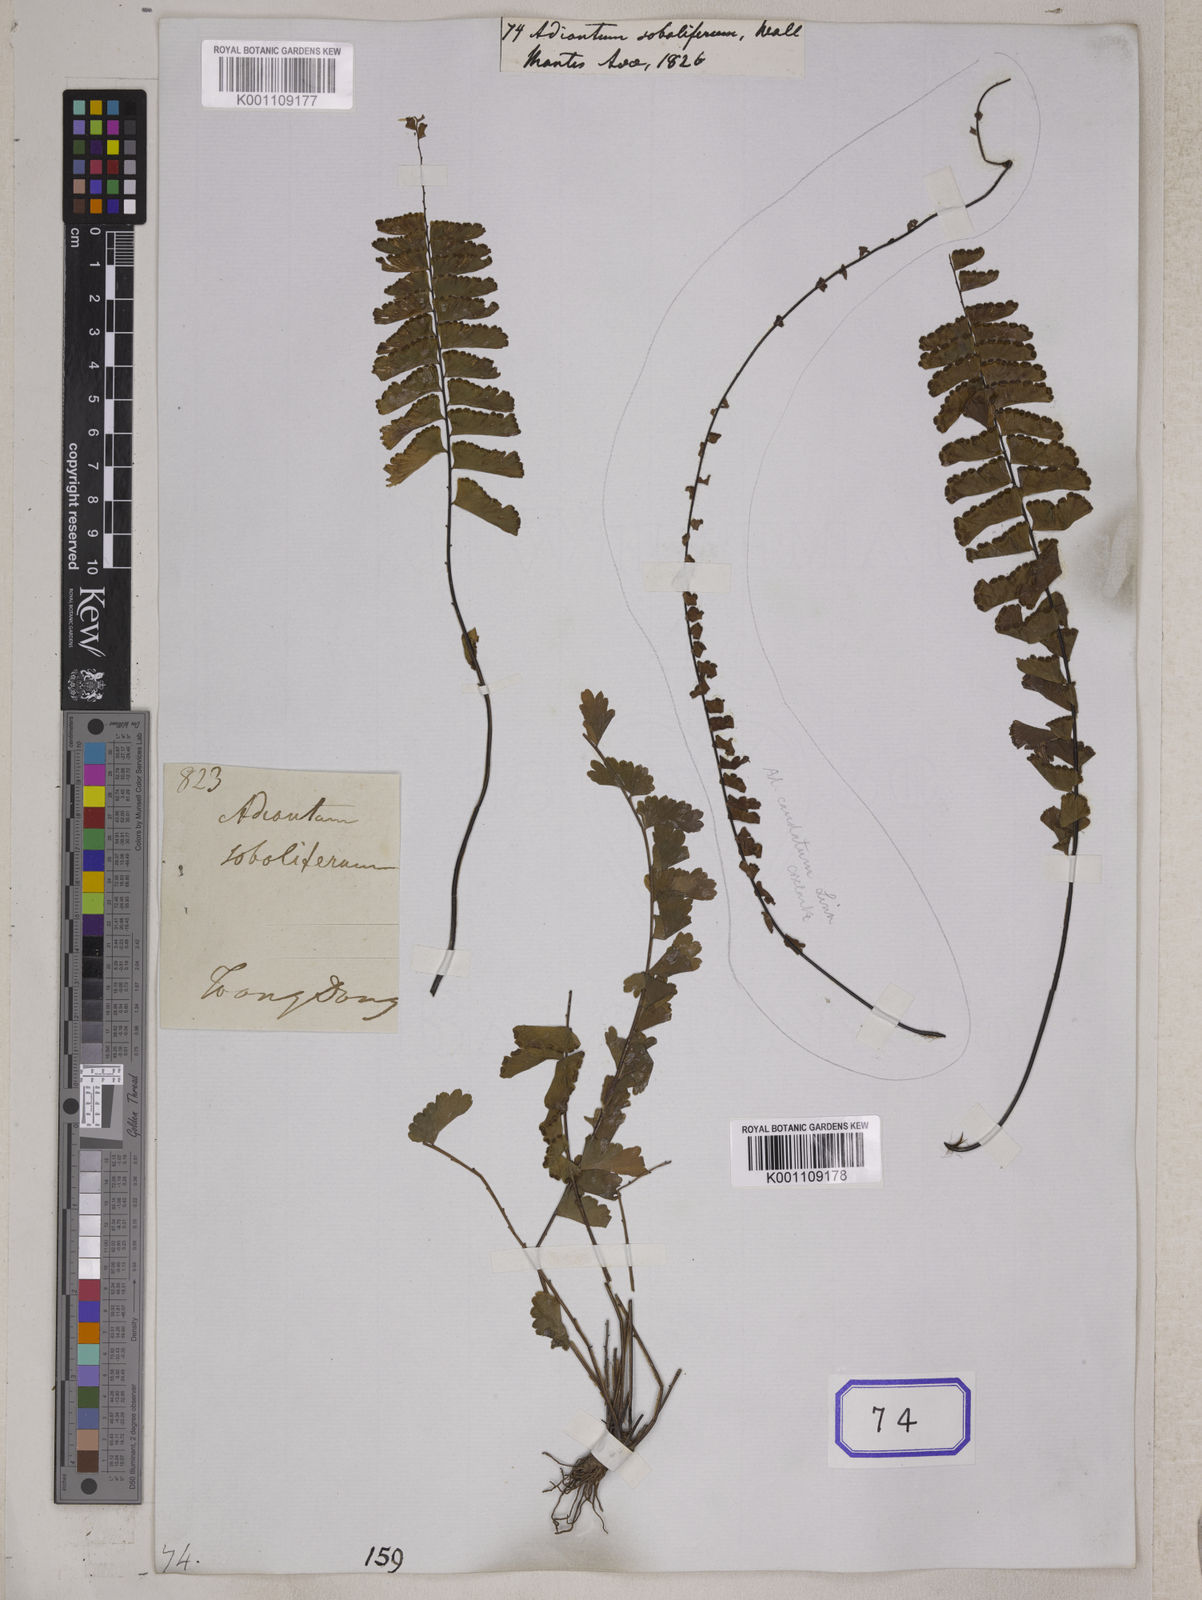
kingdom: Plantae
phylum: Tracheophyta
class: Polypodiopsida
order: Polypodiales
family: Pteridaceae
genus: Adiantum
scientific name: Adiantum soboliferum
